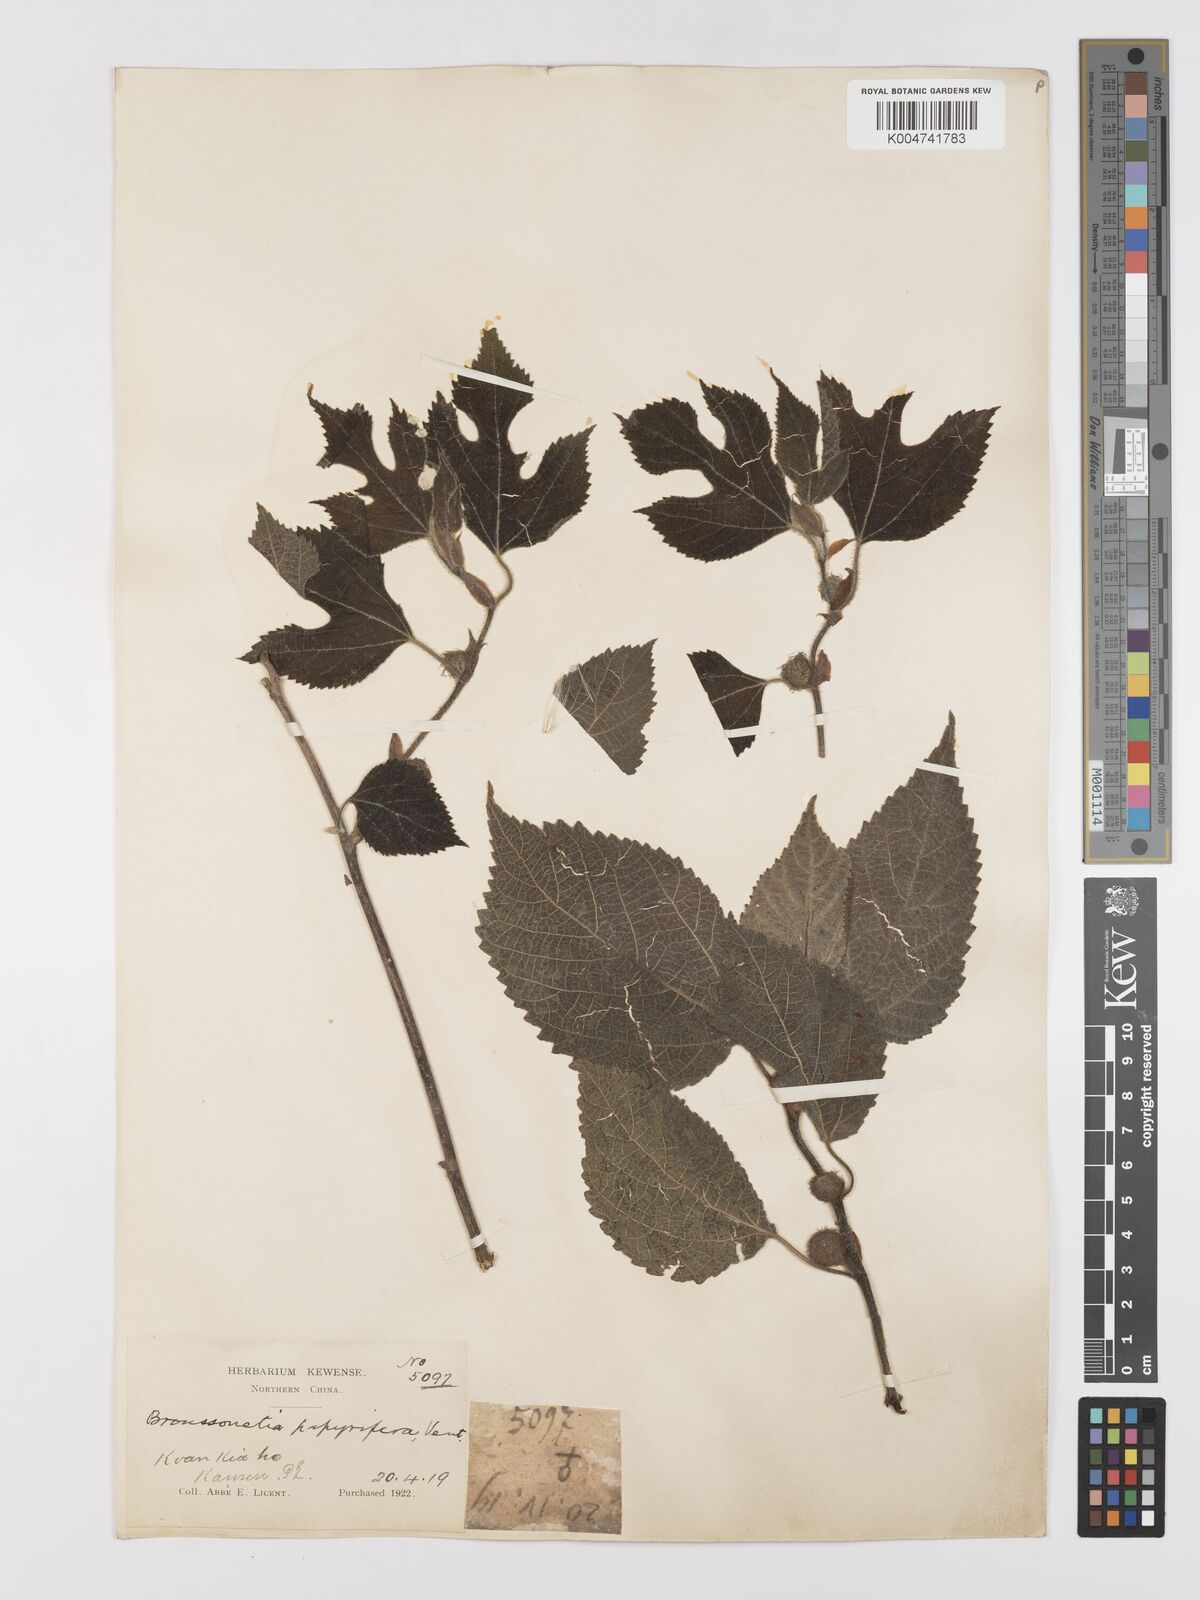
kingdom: Plantae
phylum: Tracheophyta
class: Magnoliopsida
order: Rosales
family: Moraceae
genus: Broussonetia
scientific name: Broussonetia papyrifera
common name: Paper mulberry
